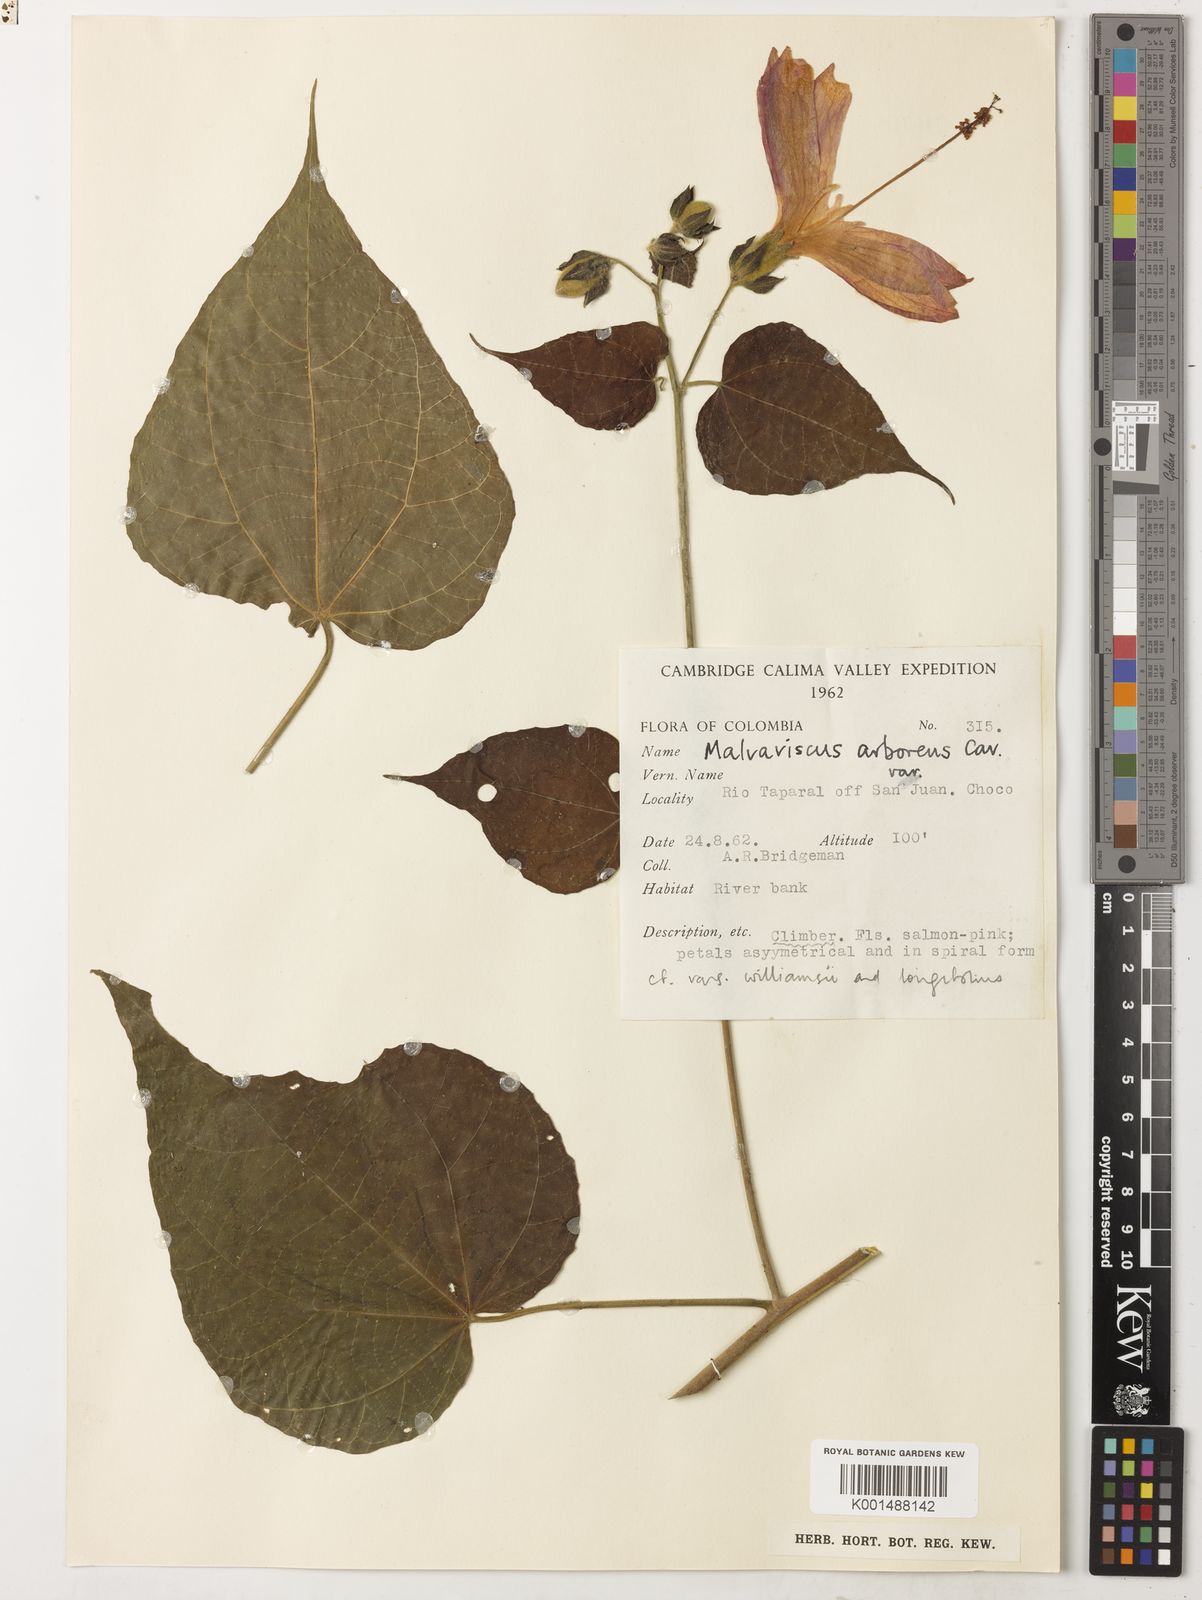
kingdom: Plantae
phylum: Tracheophyta
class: Magnoliopsida
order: Malvales
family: Malvaceae
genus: Malvaviscus
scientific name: Malvaviscus arboreus
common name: Wax mallow
